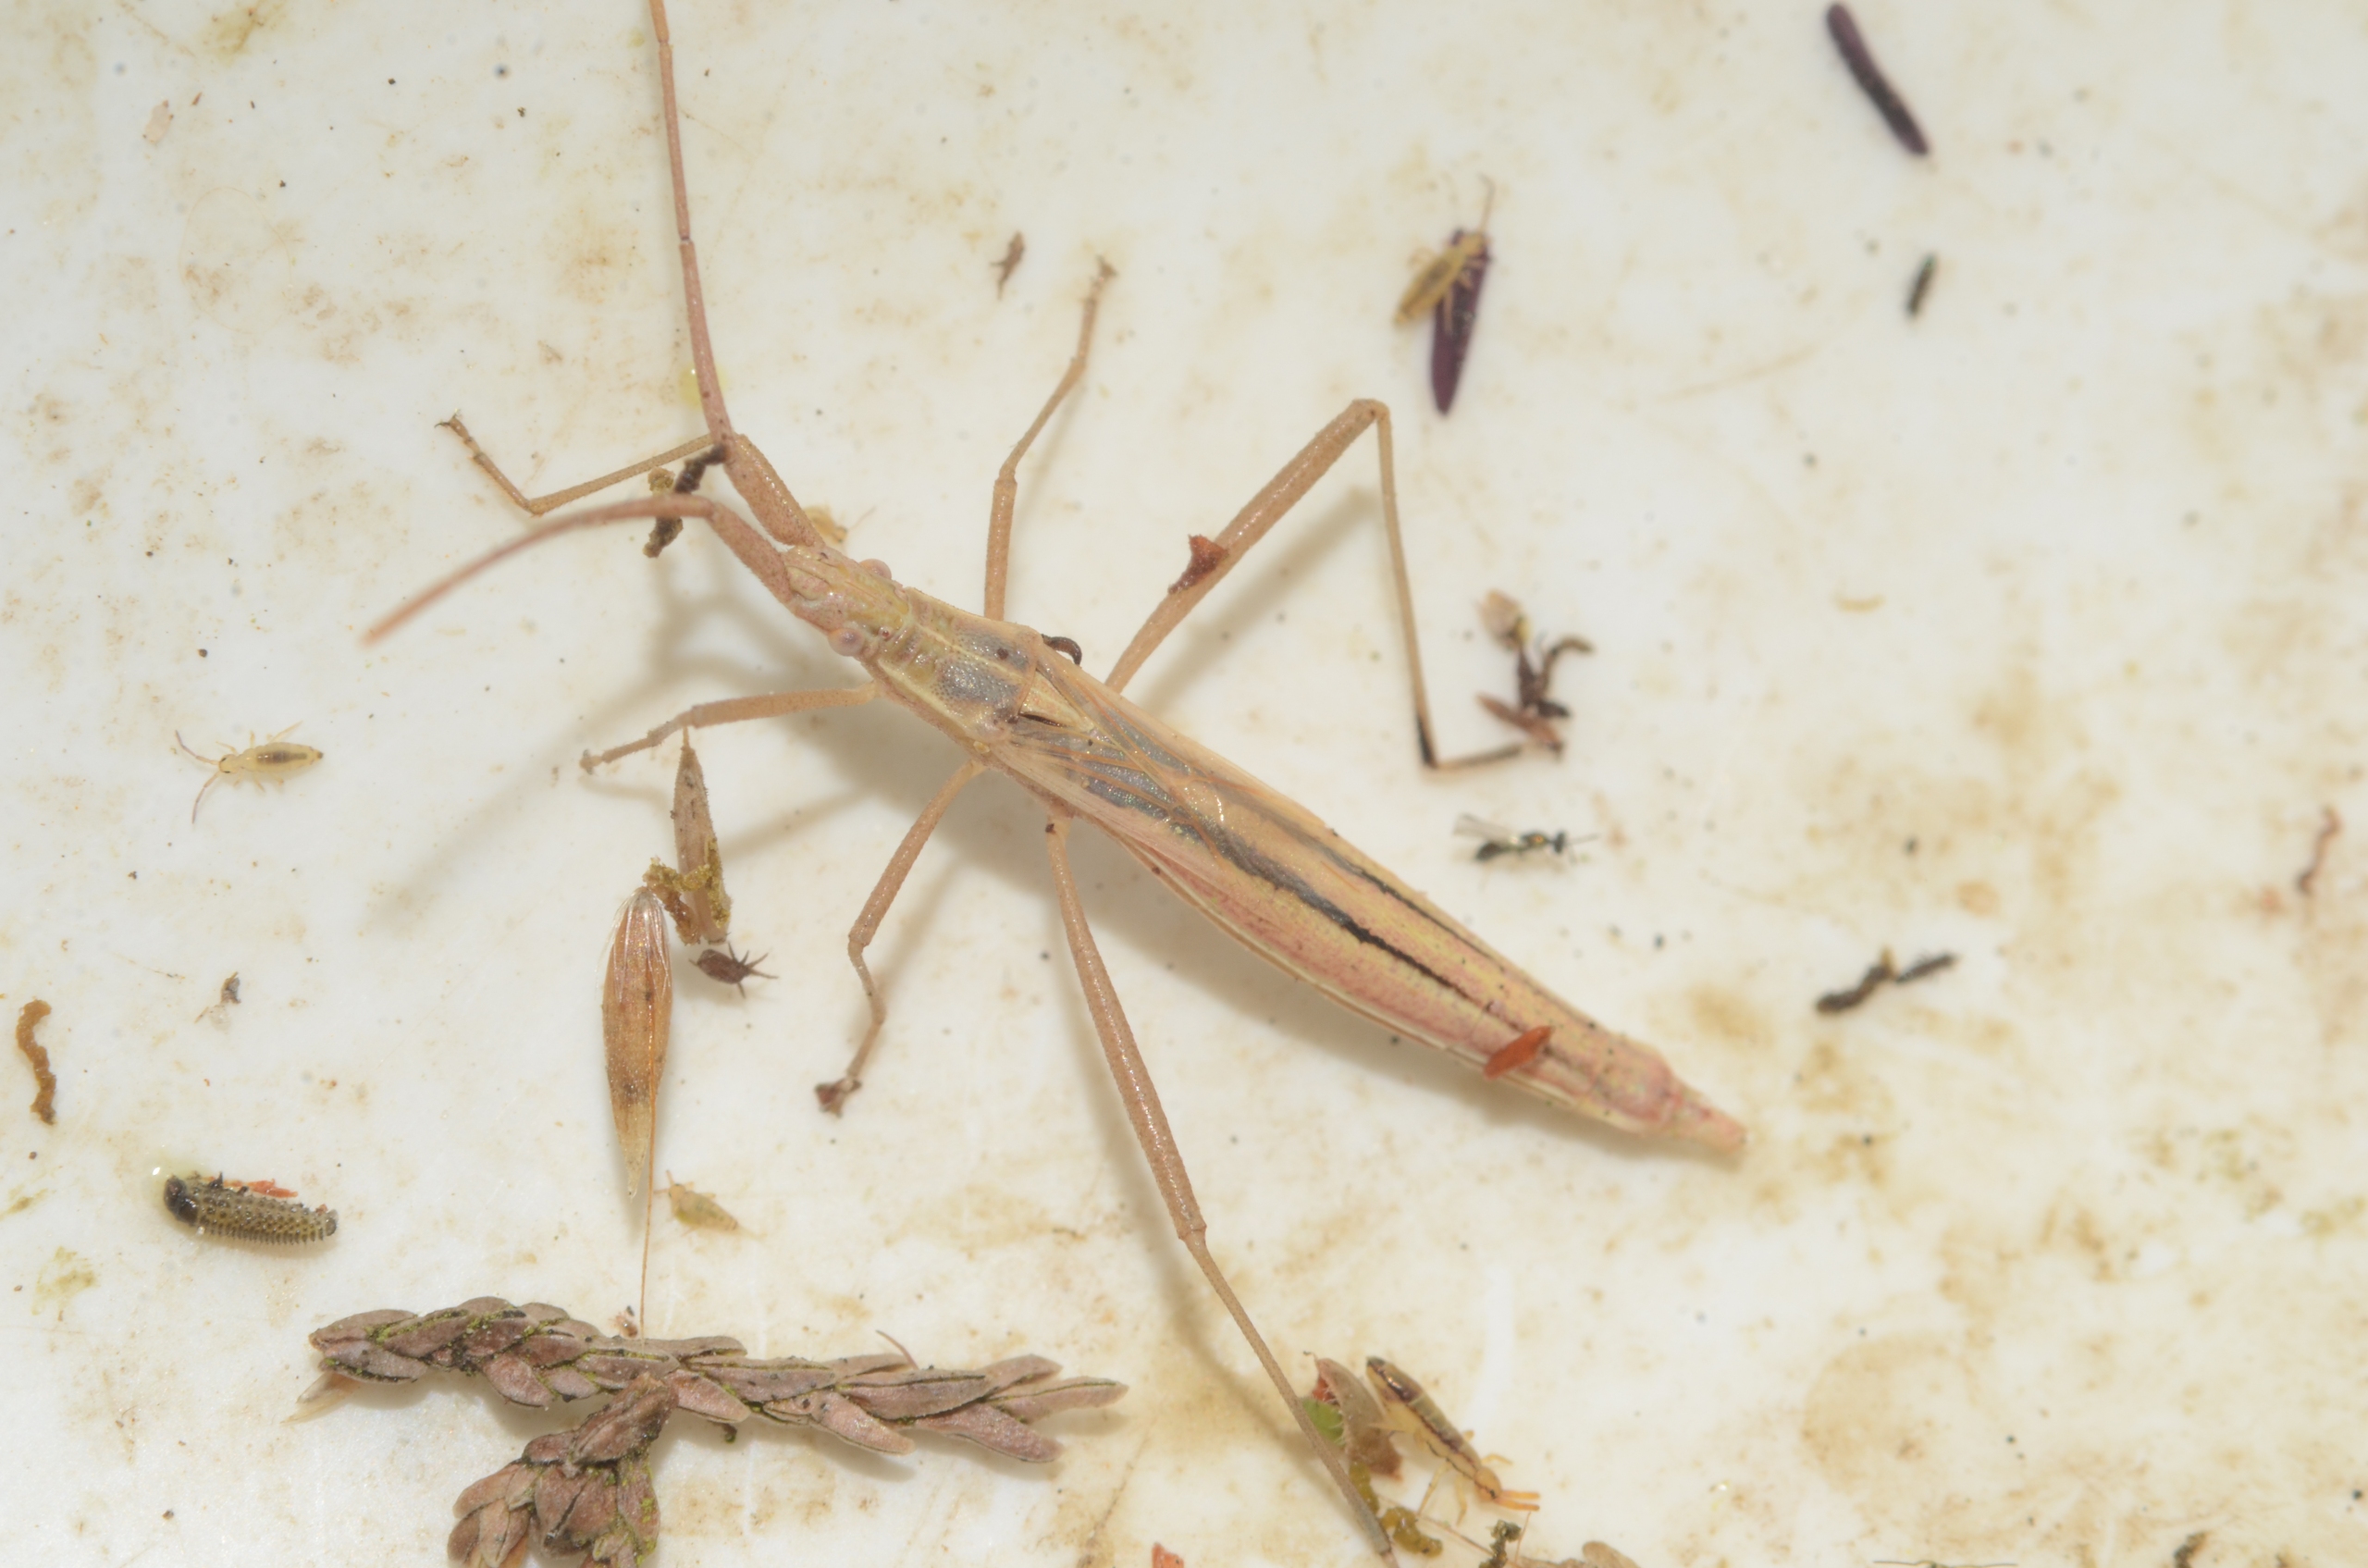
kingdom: Animalia
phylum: Arthropoda
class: Insecta
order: Hemiptera
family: Rhopalidae
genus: Chorosoma
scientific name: Chorosoma schillingii
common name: Lang stråtæge
